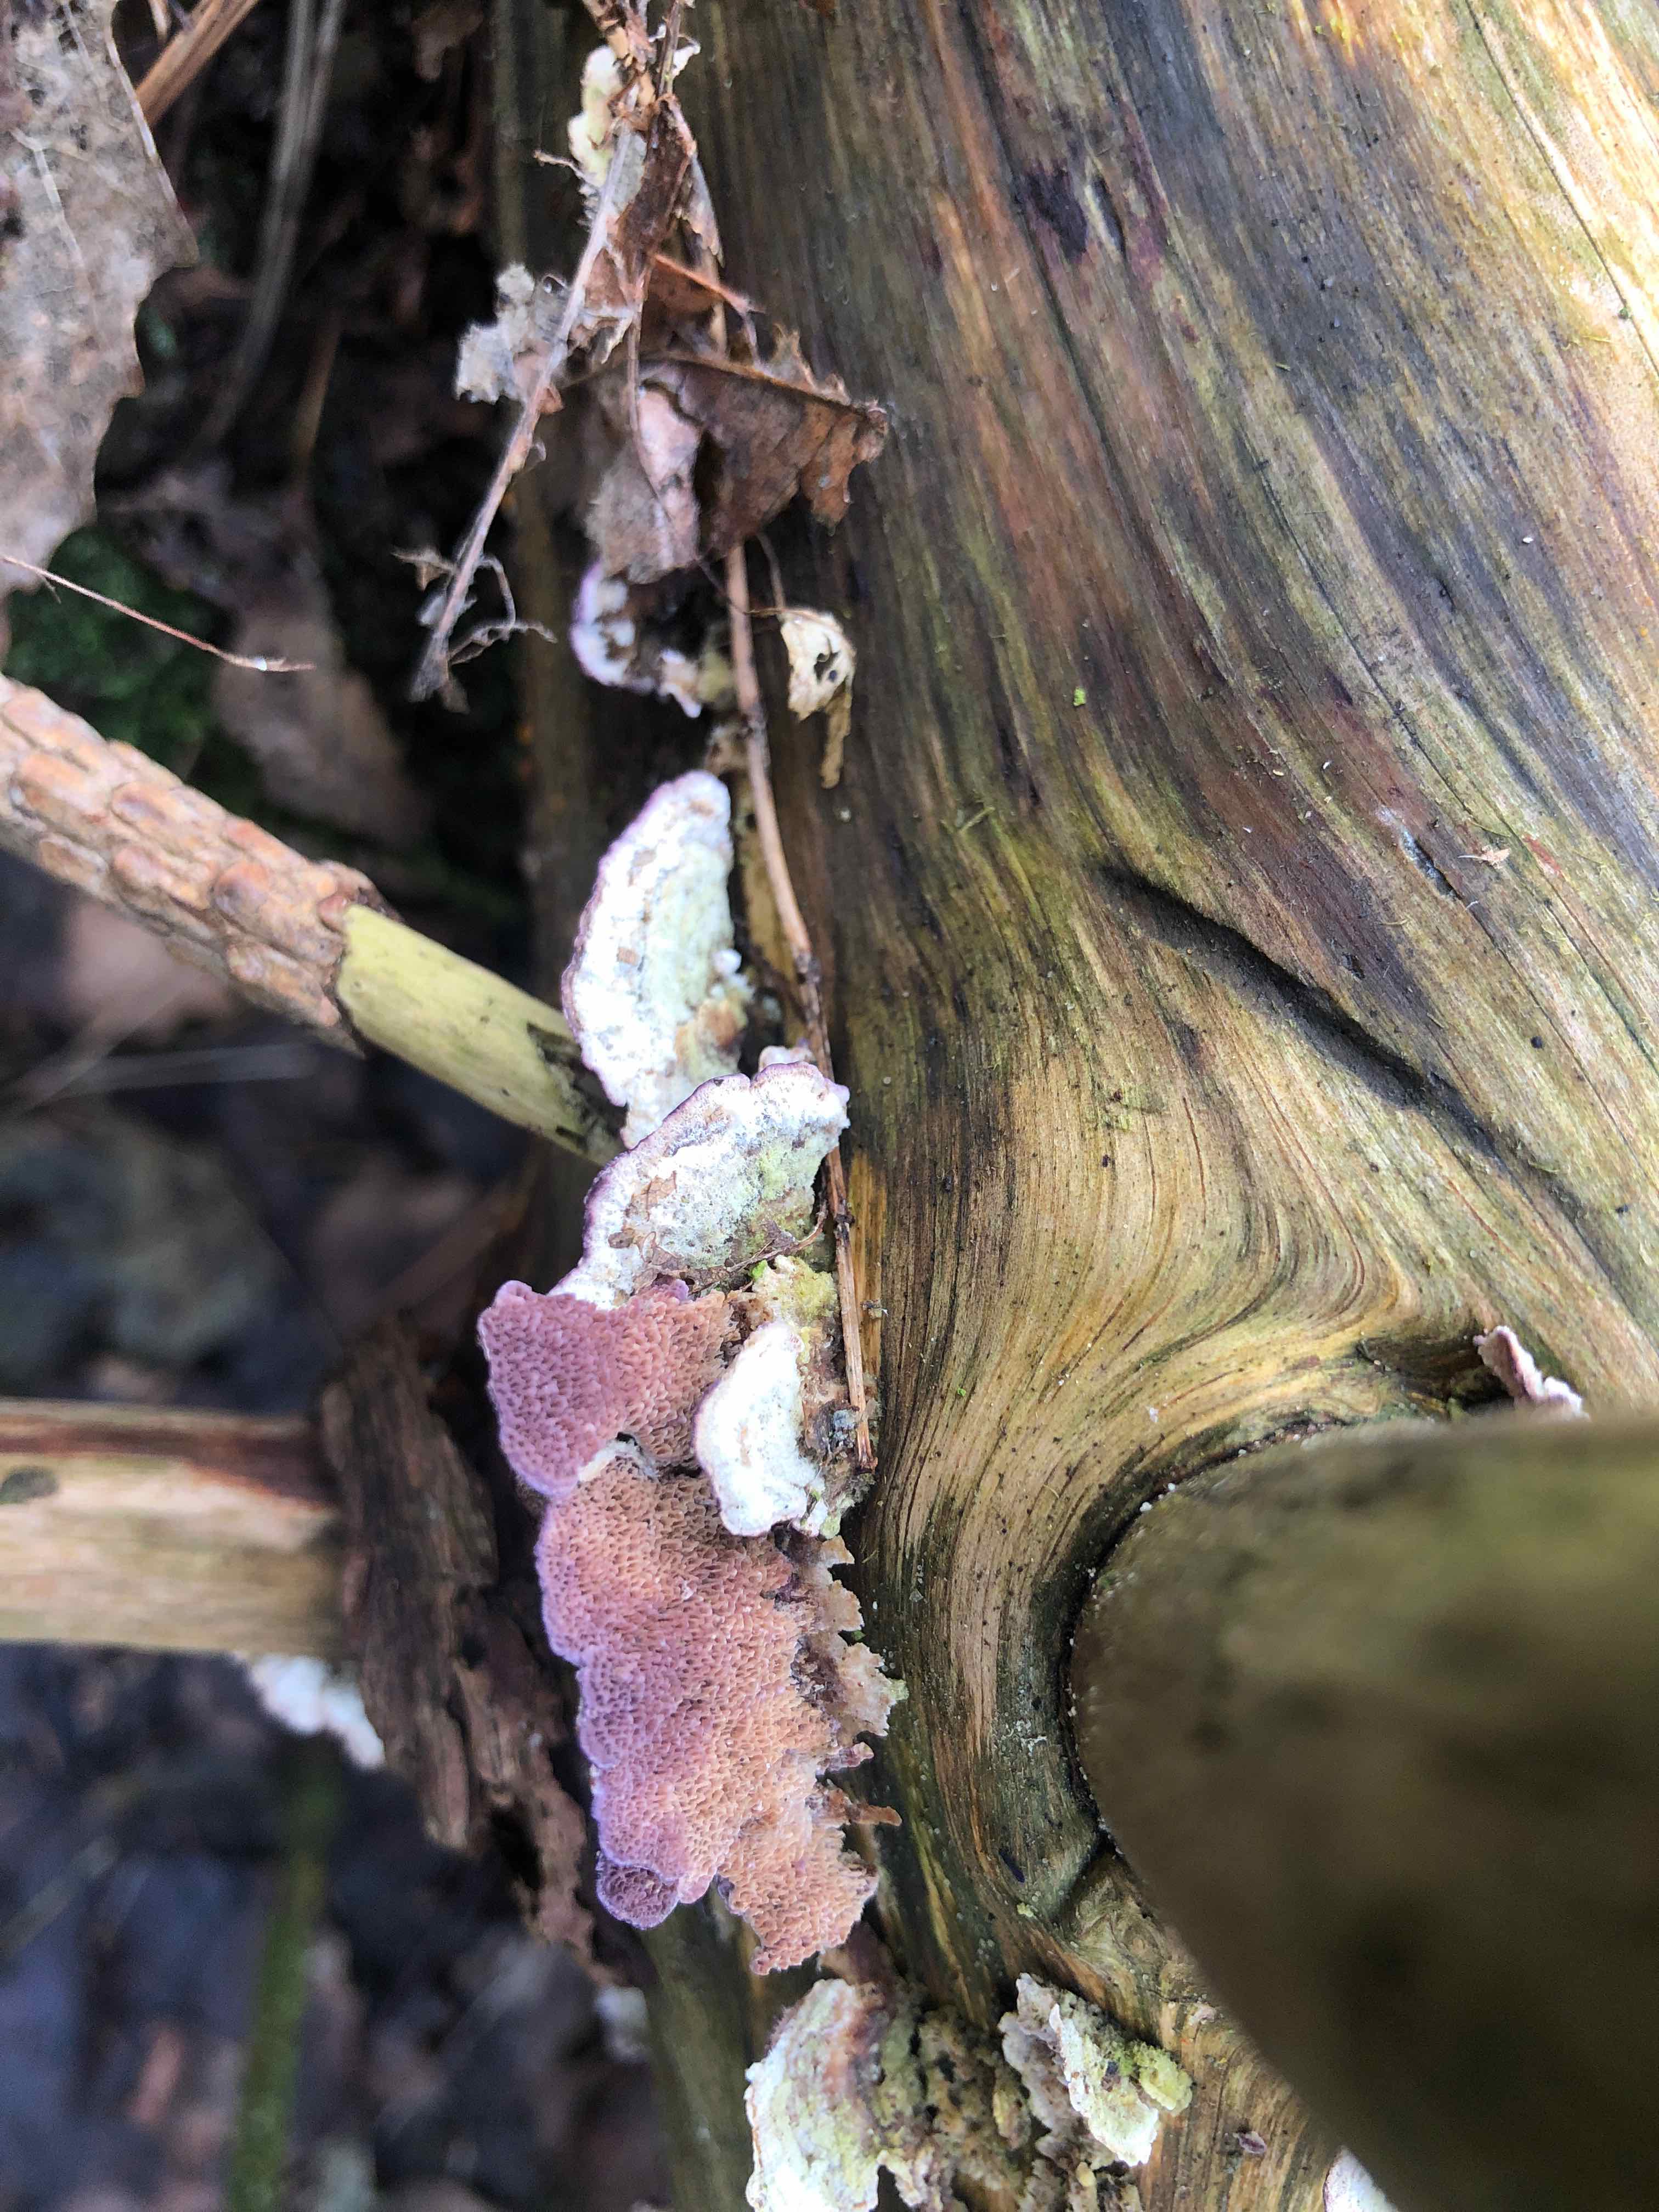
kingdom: Fungi
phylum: Basidiomycota
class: Agaricomycetes
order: Hymenochaetales
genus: Trichaptum
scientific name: Trichaptum abietinum
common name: almindelig violporesvamp
